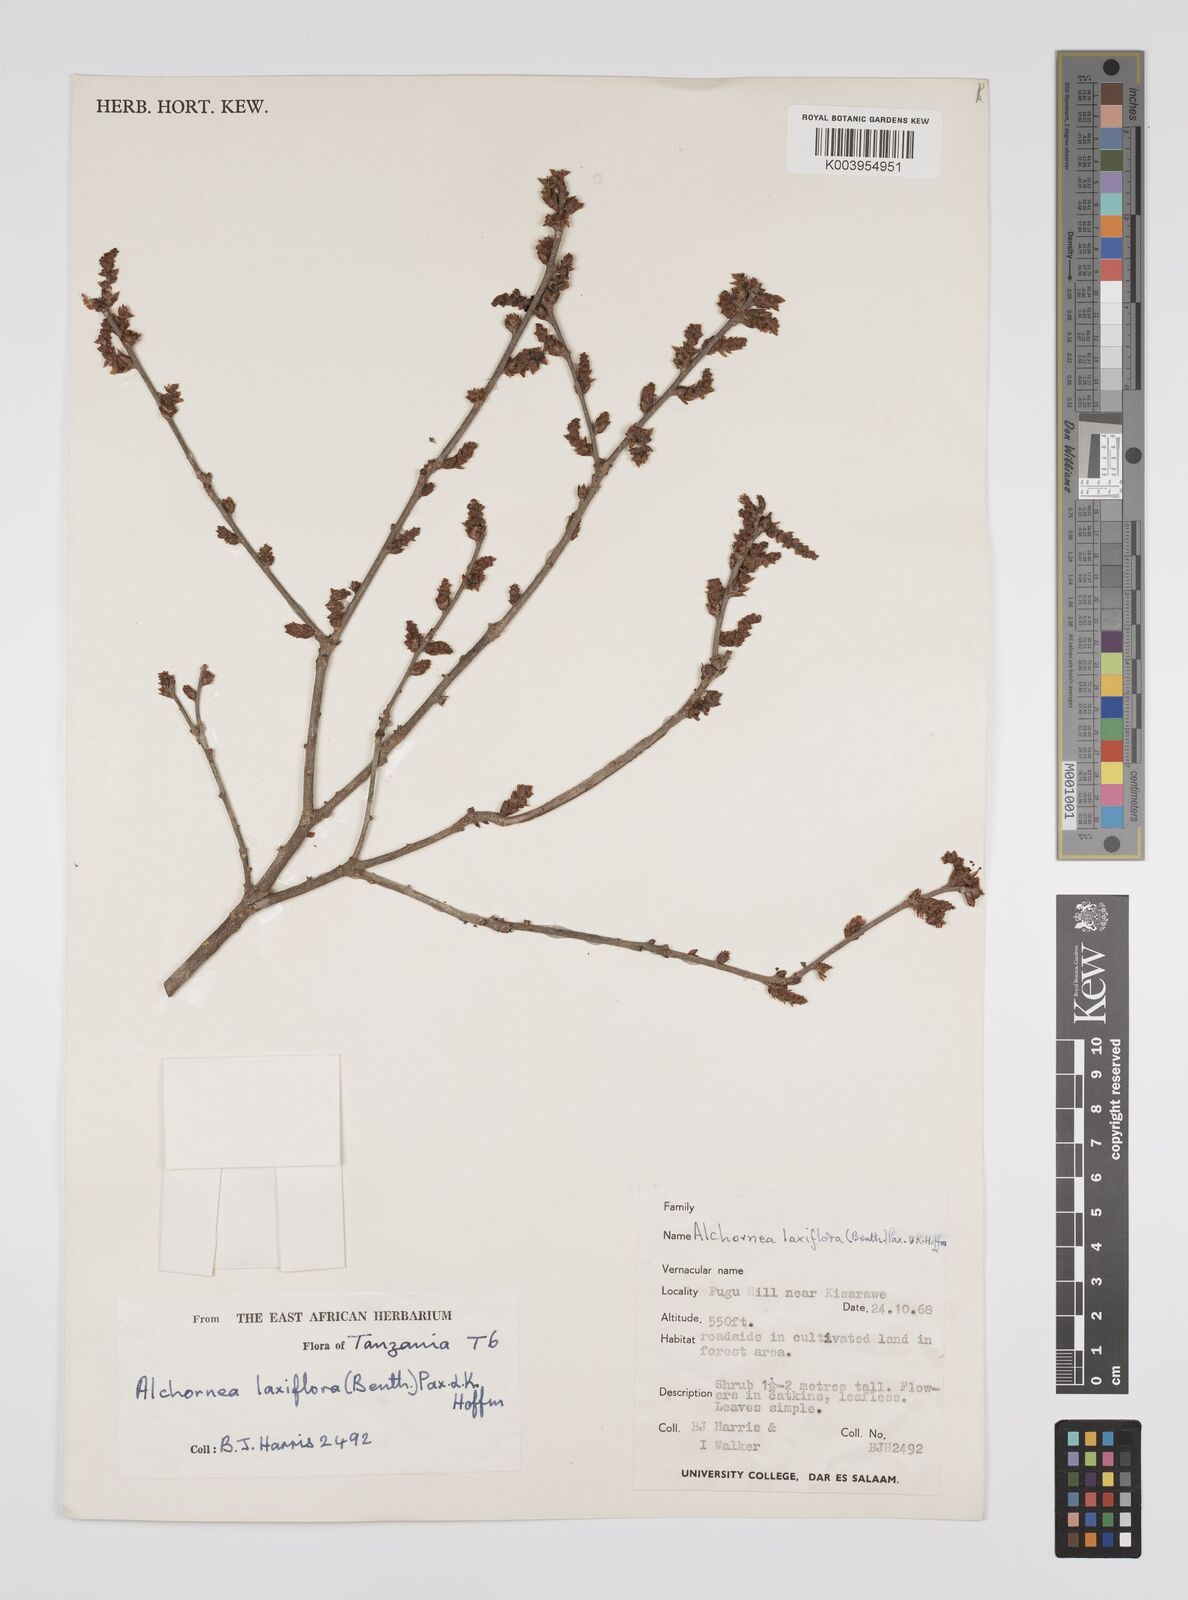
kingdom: Plantae
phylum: Tracheophyta
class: Magnoliopsida
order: Malpighiales
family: Euphorbiaceae
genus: Alchornea
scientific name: Alchornea laxiflora
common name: Lowveld bead-string
